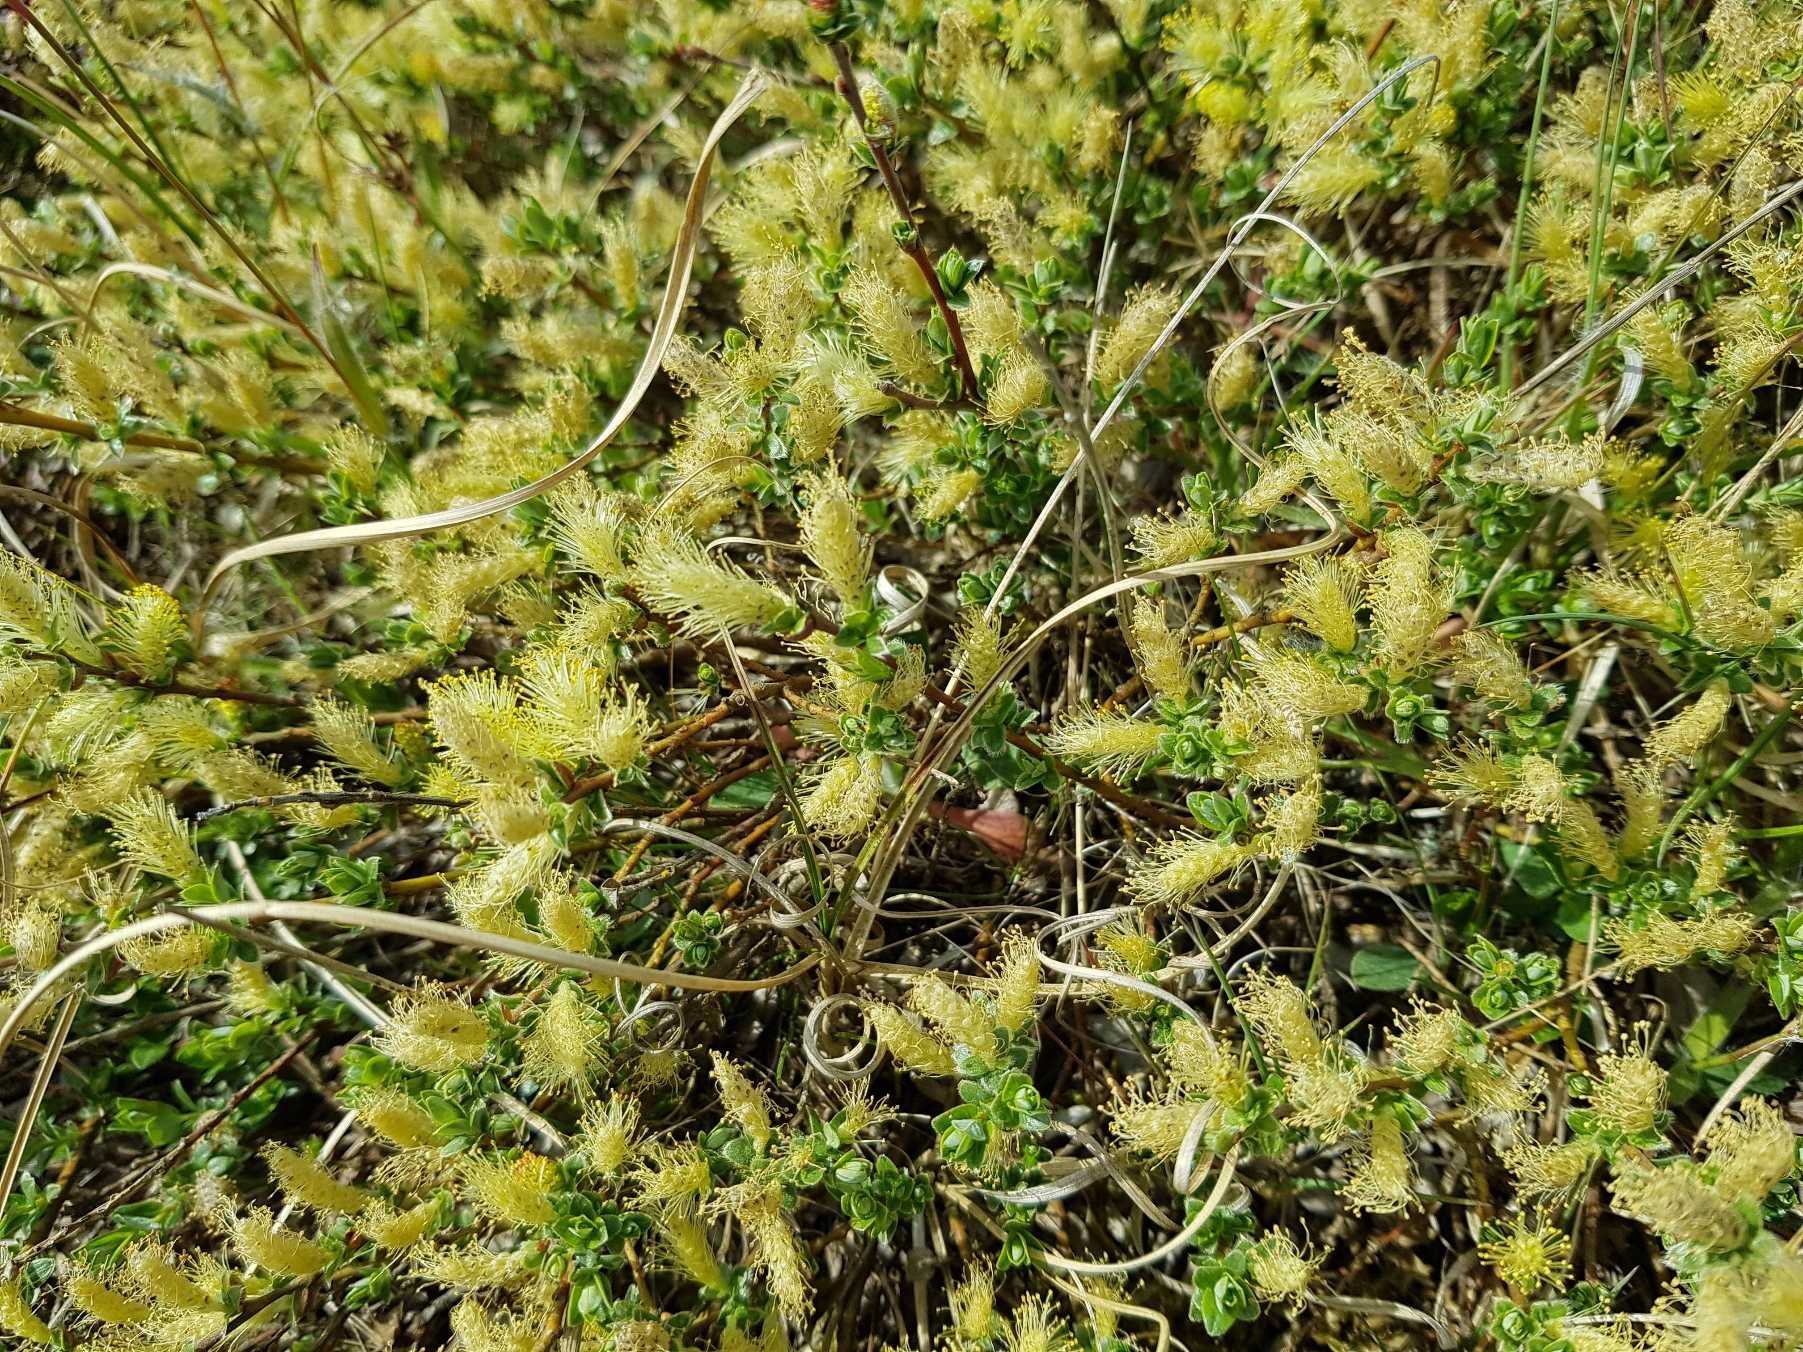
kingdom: Plantae
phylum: Tracheophyta
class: Magnoliopsida
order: Malpighiales
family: Salicaceae
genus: Salix
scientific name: Salix repens
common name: Krybende pil
